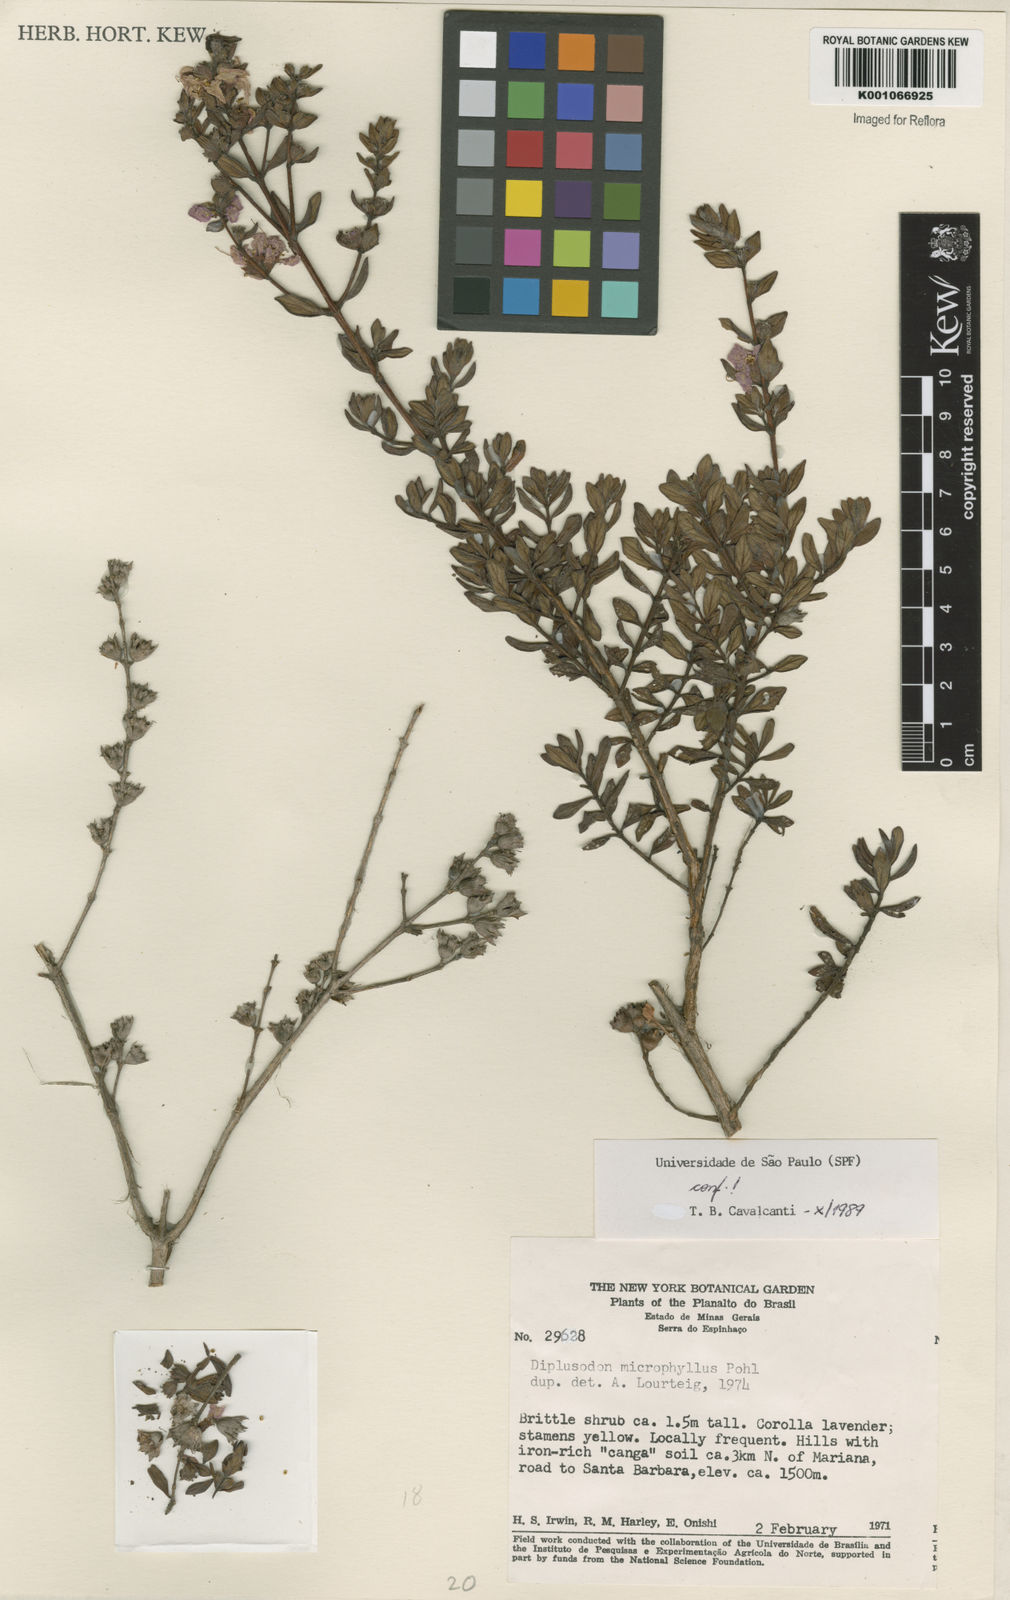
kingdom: Plantae
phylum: Tracheophyta
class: Magnoliopsida
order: Myrtales
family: Lythraceae
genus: Diplusodon
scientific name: Diplusodon microphyllus
